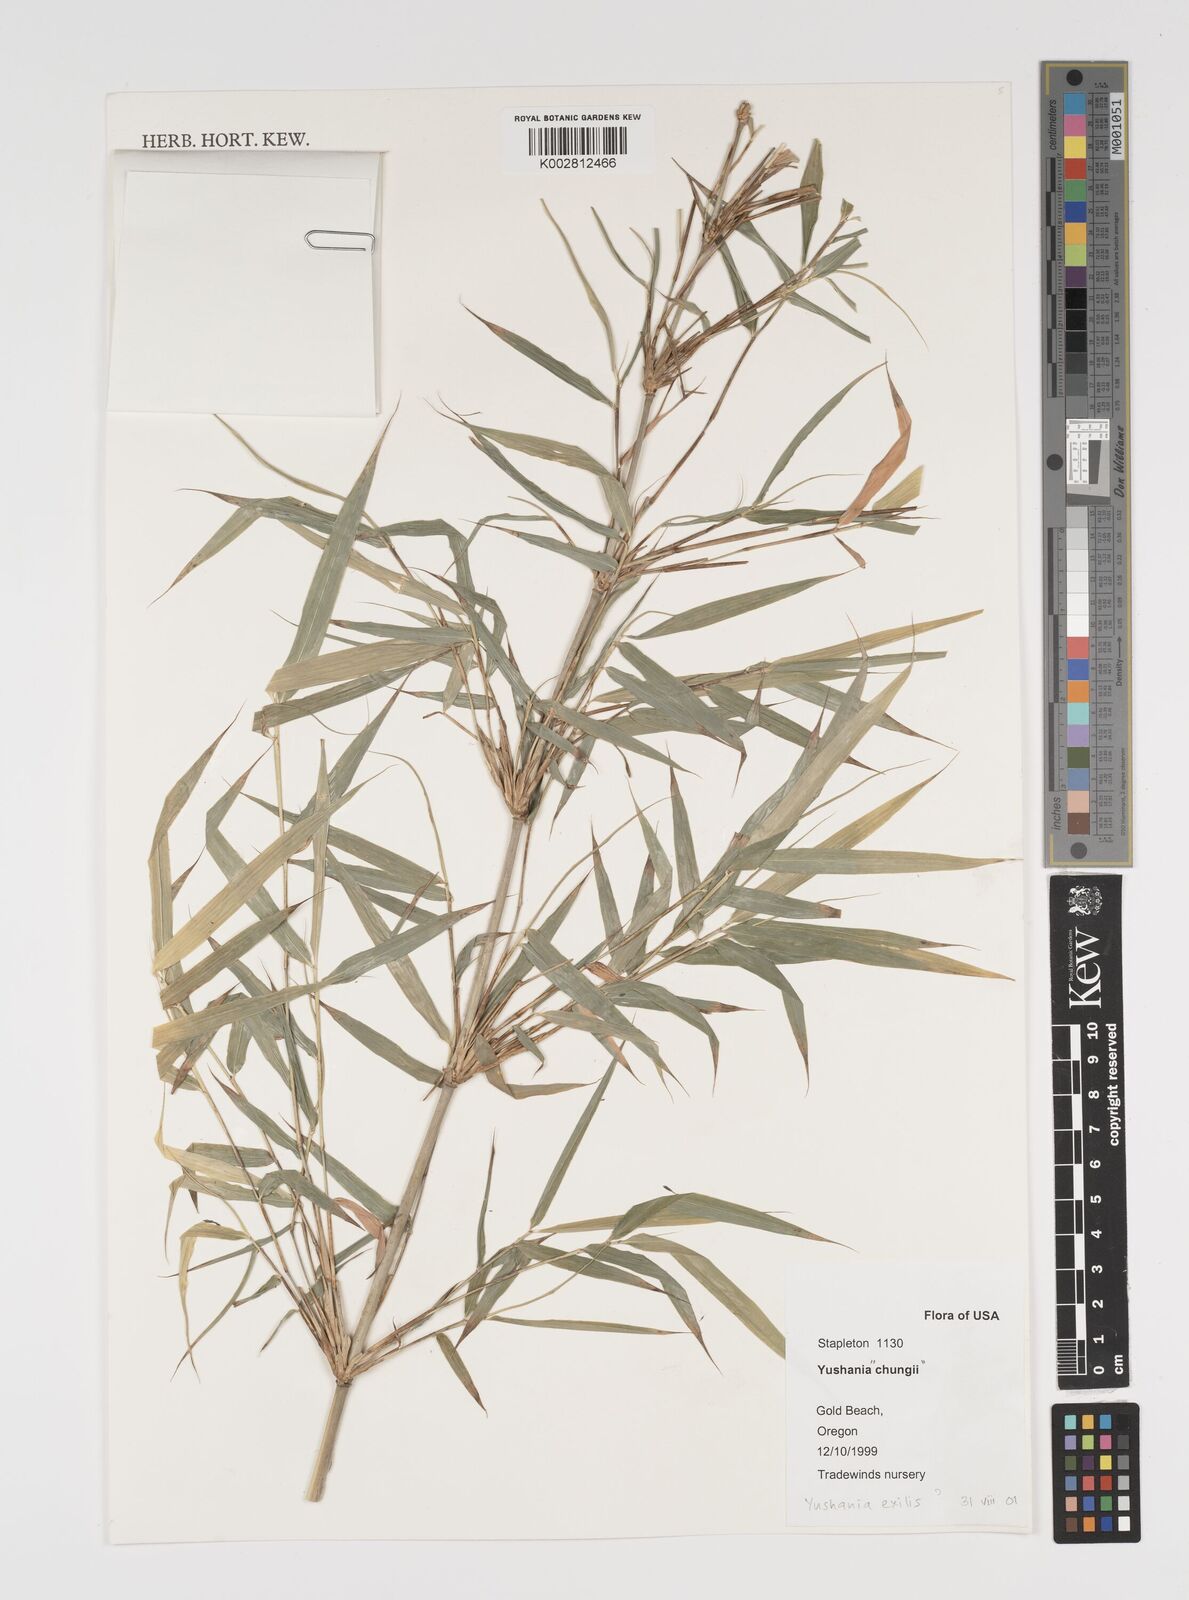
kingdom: Plantae
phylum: Tracheophyta
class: Liliopsida
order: Poales
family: Poaceae
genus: Yushania
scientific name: Yushania brevipaniculata
